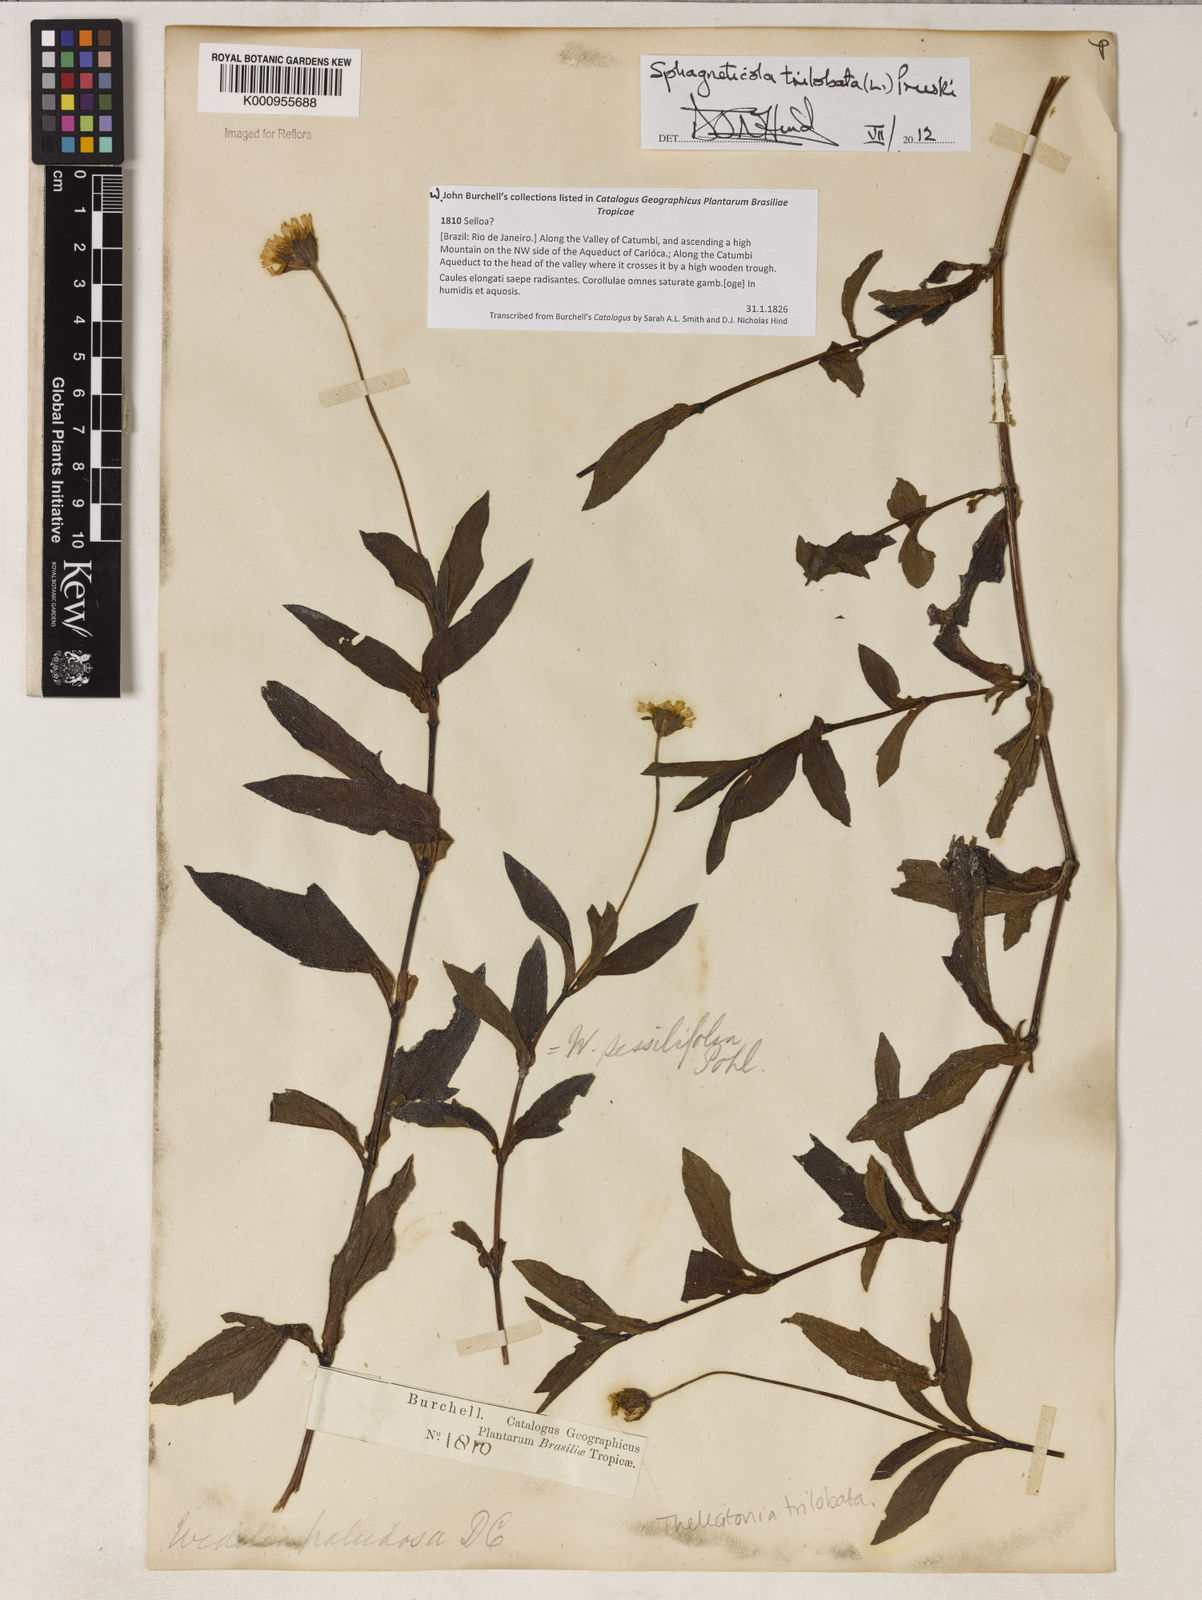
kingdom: Plantae
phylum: Tracheophyta
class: Magnoliopsida
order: Asterales
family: Asteraceae
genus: Sphagneticola
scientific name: Sphagneticola trilobata
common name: Bay biscayne creeping-oxeye
